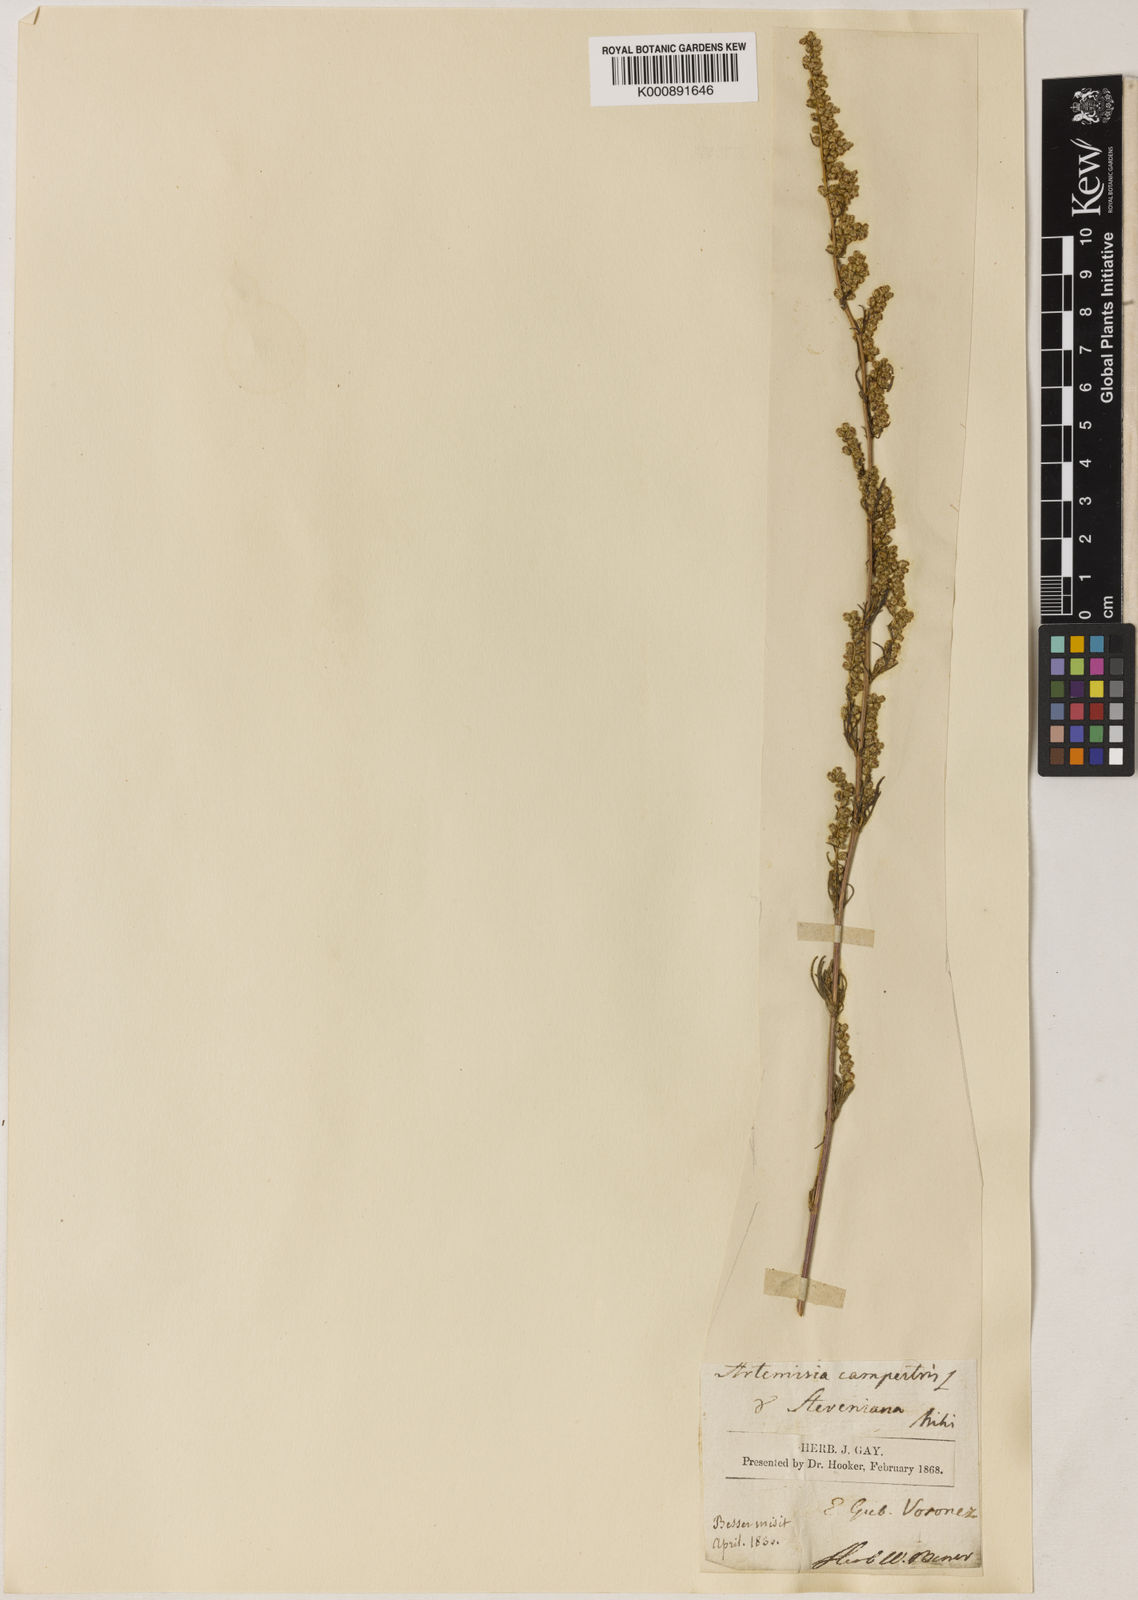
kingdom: Plantae
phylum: Tracheophyta
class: Magnoliopsida
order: Asterales
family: Asteraceae
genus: Artemisia
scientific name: Artemisia
